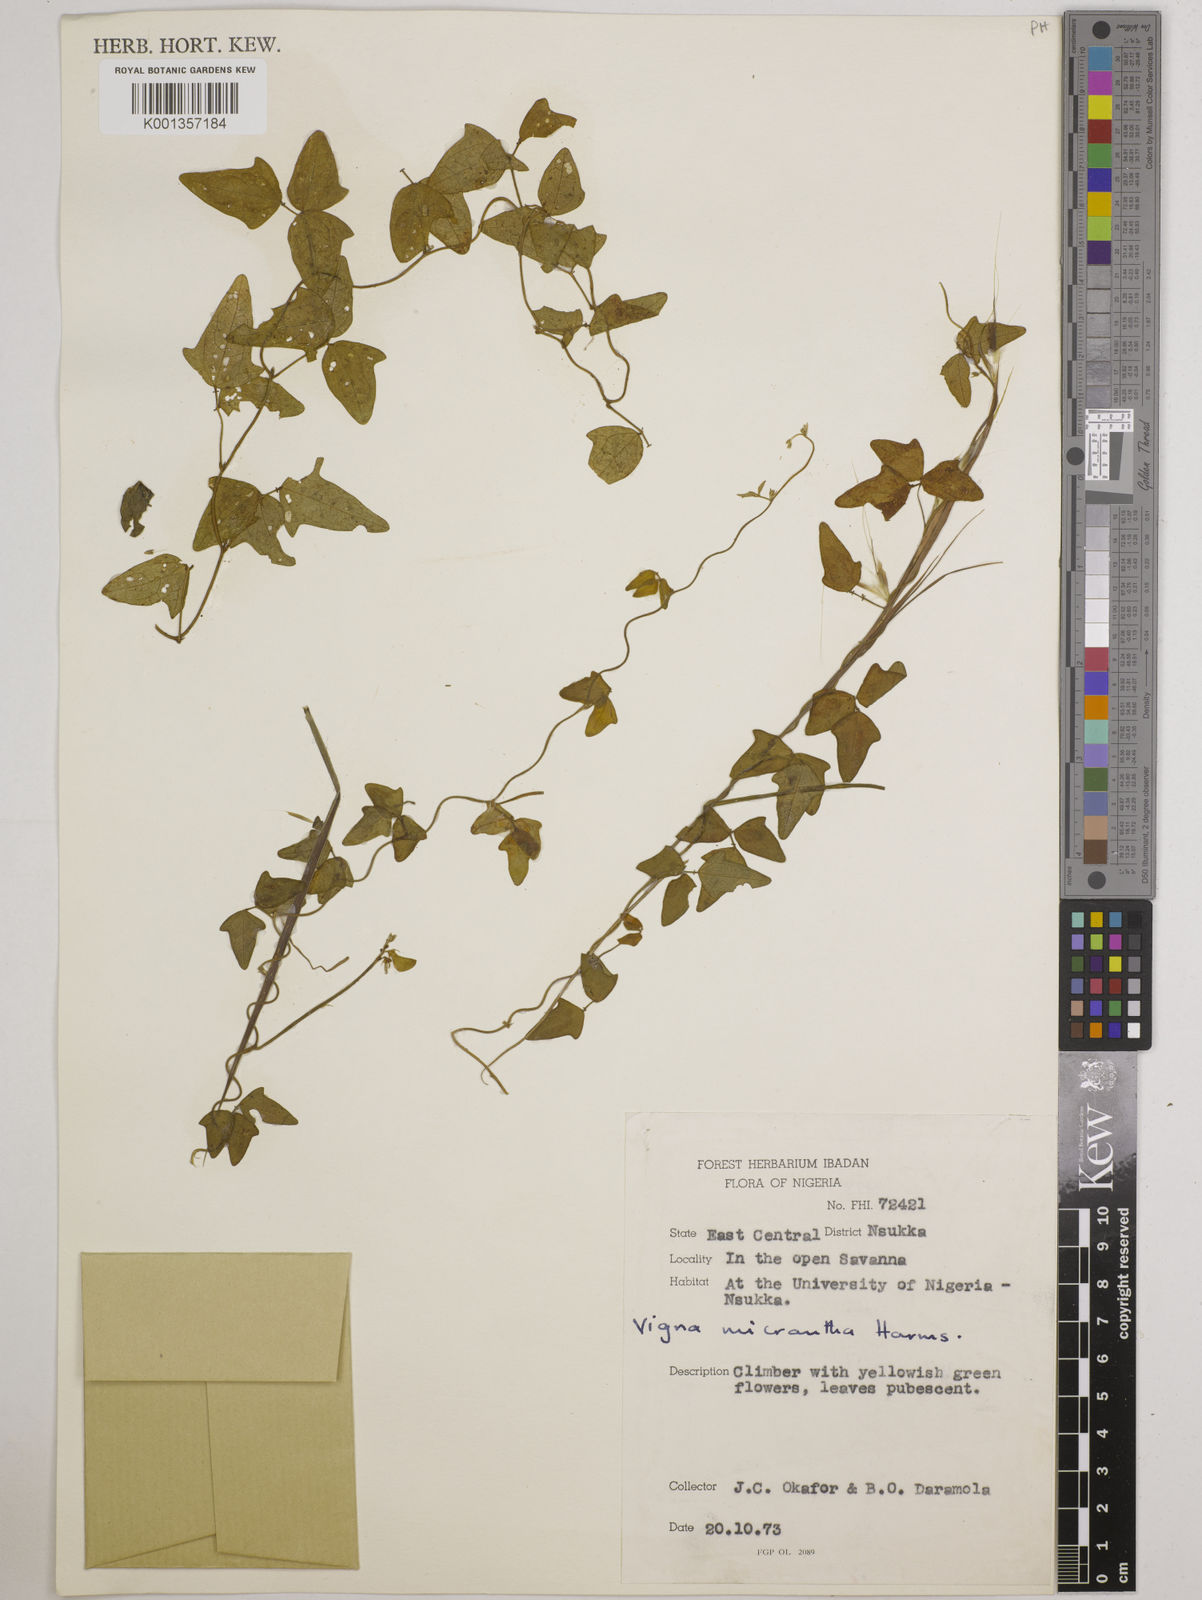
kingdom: Plantae
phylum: Tracheophyta
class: Magnoliopsida
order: Fabales
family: Fabaceae
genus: Vigna
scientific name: Vigna comosa
